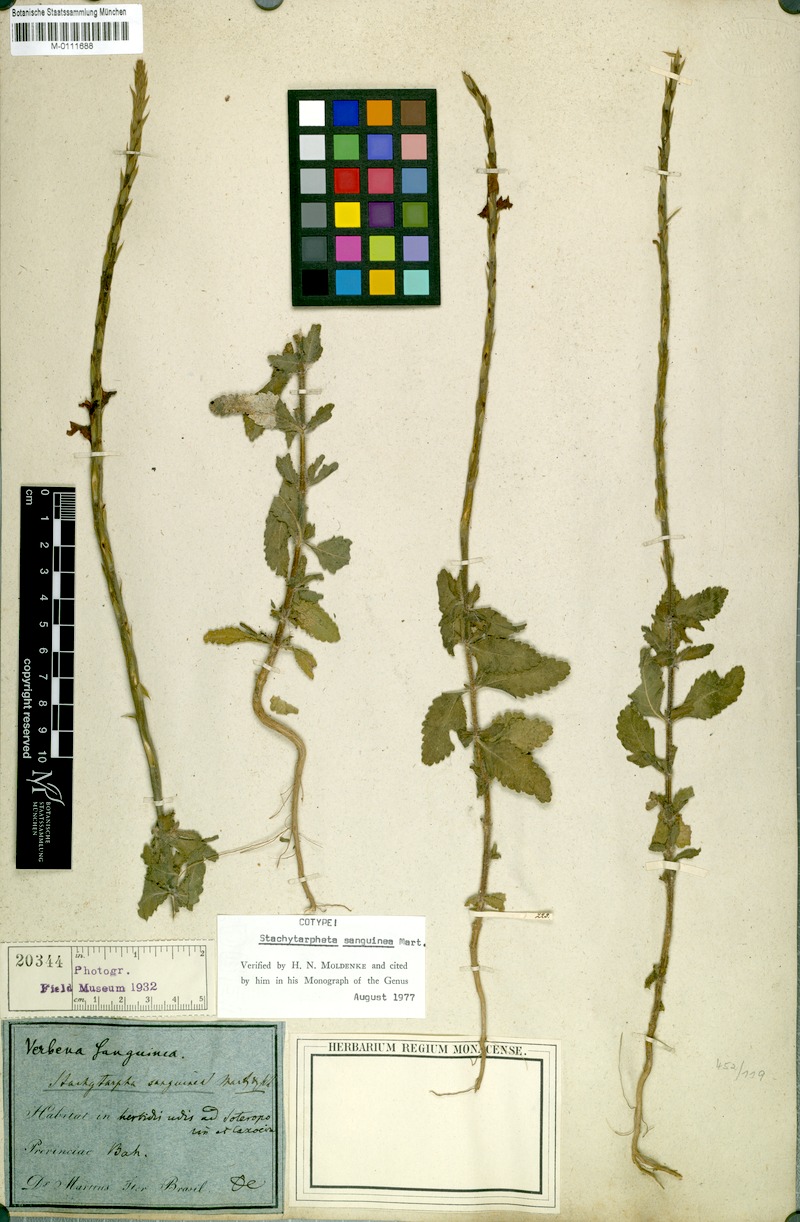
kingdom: Plantae
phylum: Tracheophyta
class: Magnoliopsida
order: Lamiales
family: Verbenaceae
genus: Stachytarpheta
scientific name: Stachytarpheta microphylla
